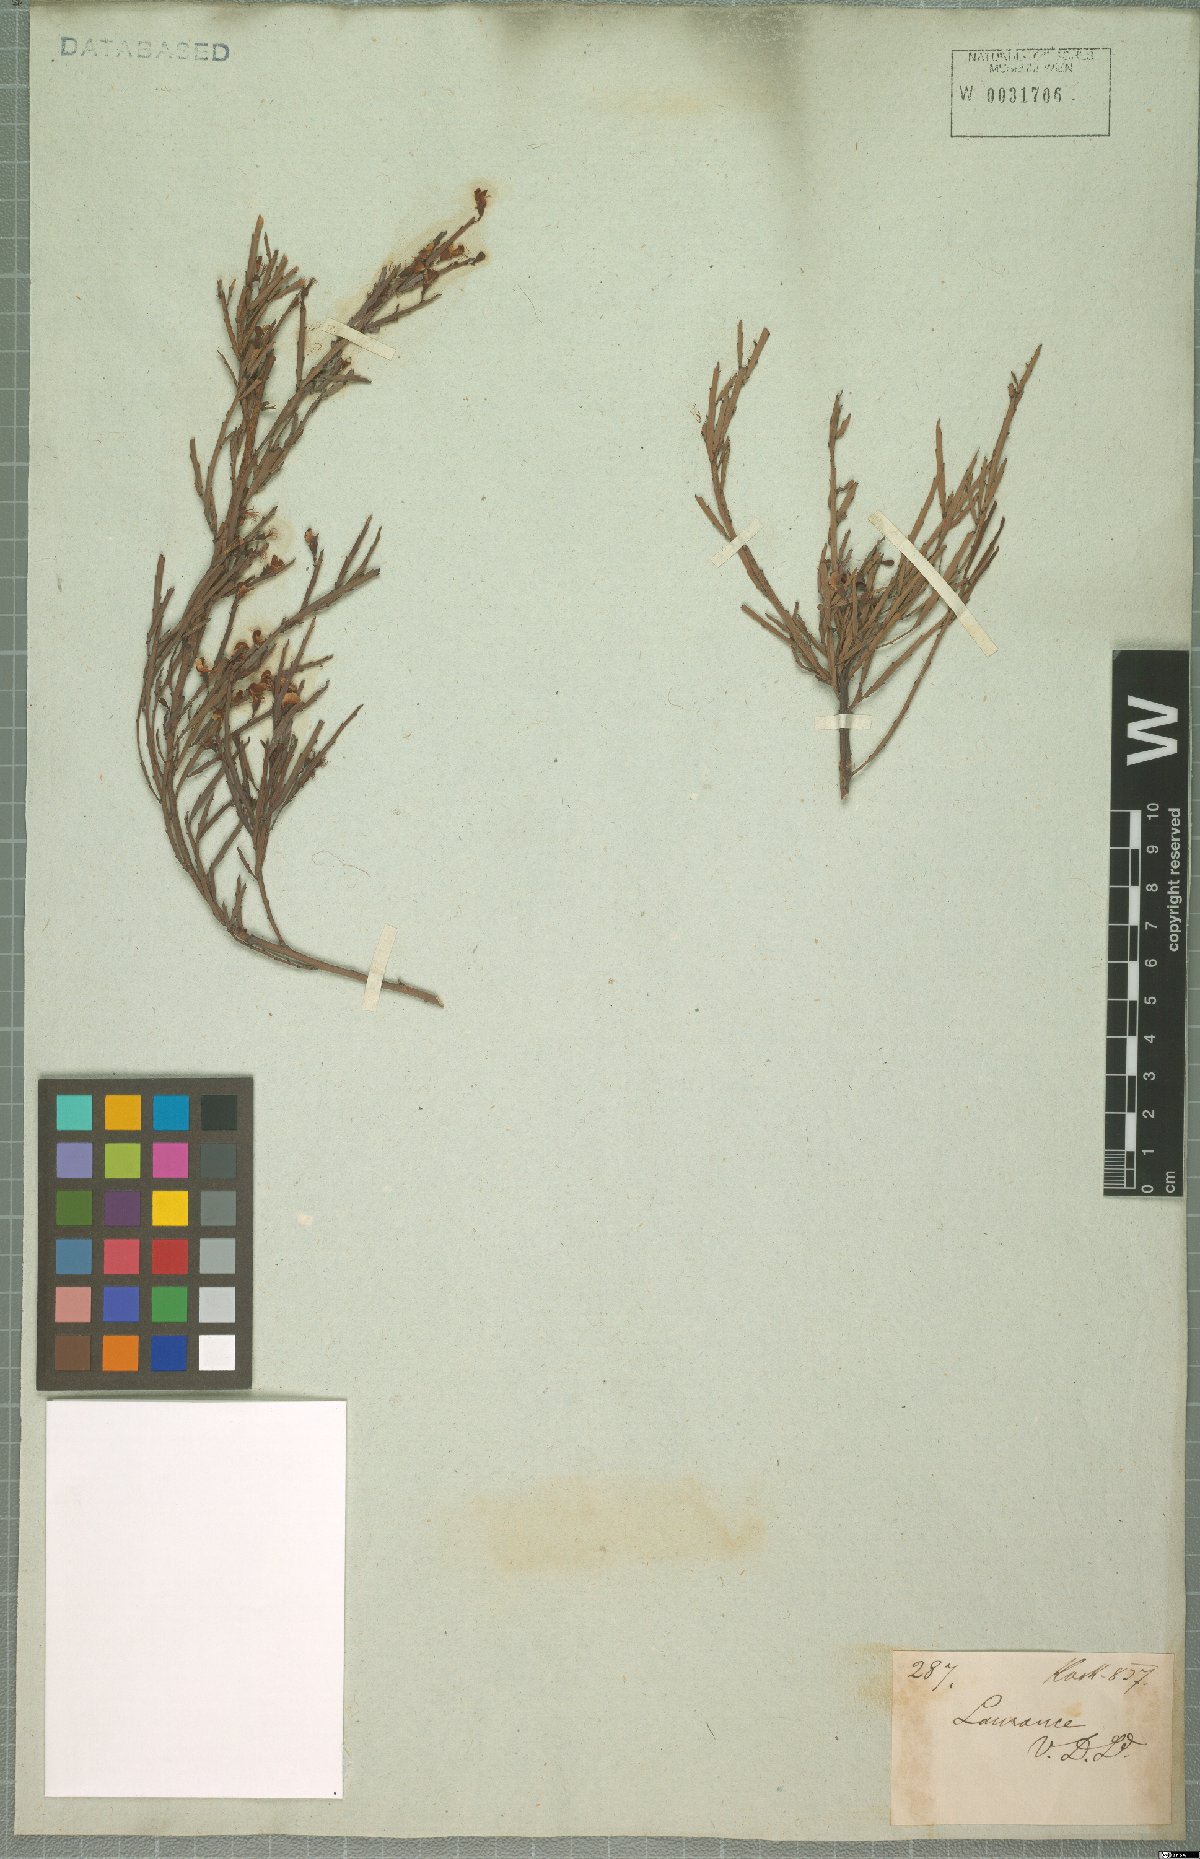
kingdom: Plantae
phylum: Tracheophyta
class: Magnoliopsida
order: Fabales
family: Fabaceae
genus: Bossiaea
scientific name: Bossiaea riparia
